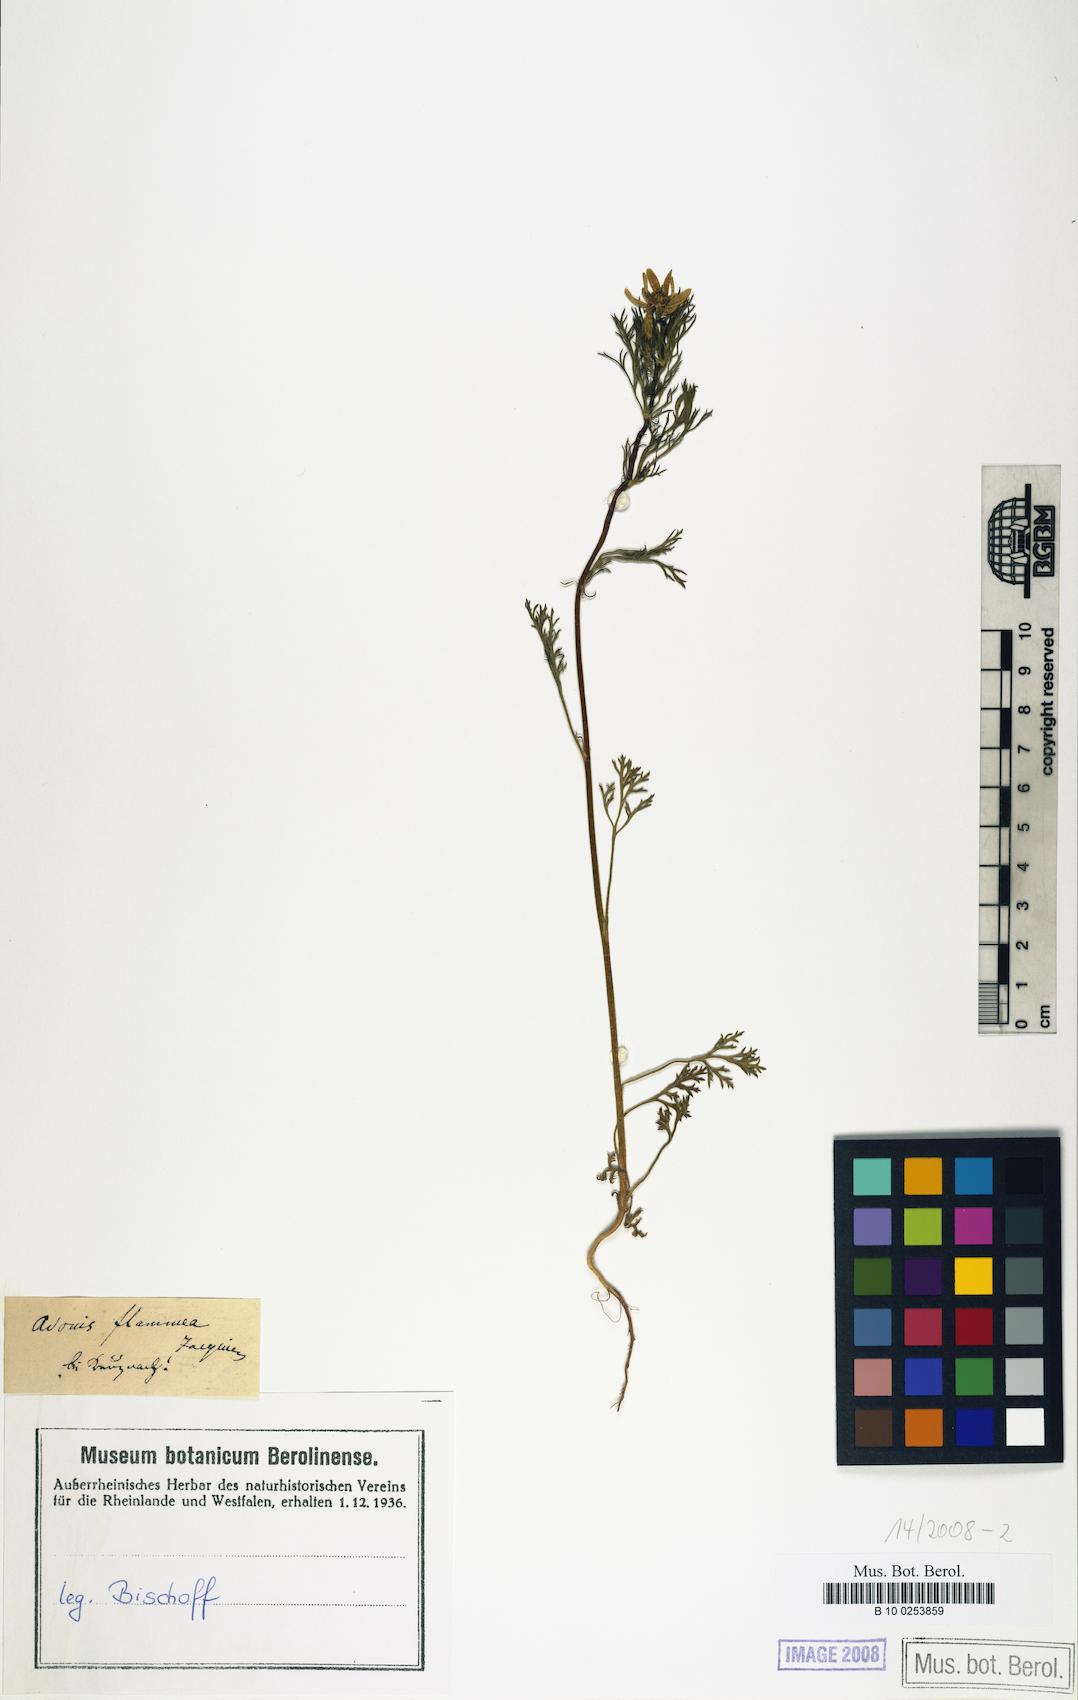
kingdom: Plantae
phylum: Tracheophyta
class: Magnoliopsida
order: Ranunculales
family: Ranunculaceae
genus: Adonis
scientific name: Adonis flammea
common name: Large pheasant's-eye
